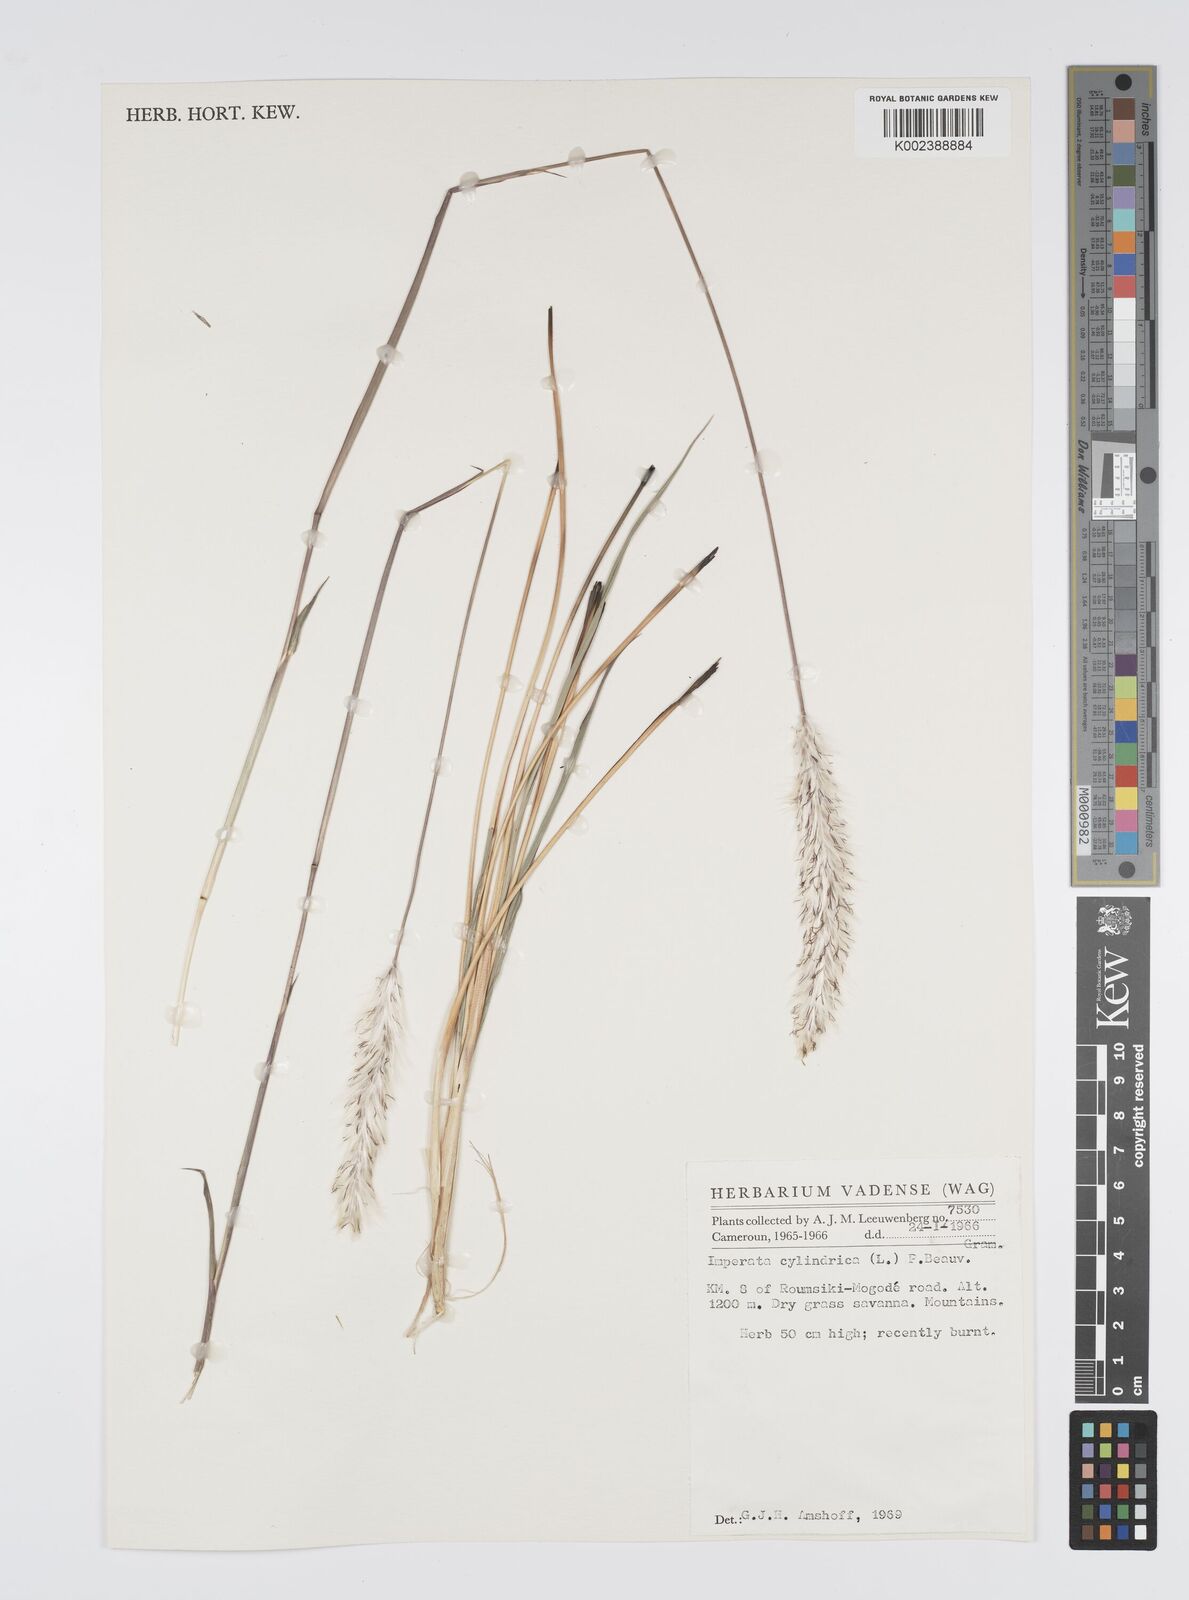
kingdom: Plantae
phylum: Tracheophyta
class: Liliopsida
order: Poales
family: Poaceae
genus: Imperata
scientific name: Imperata cylindrica
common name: Cogongrass
